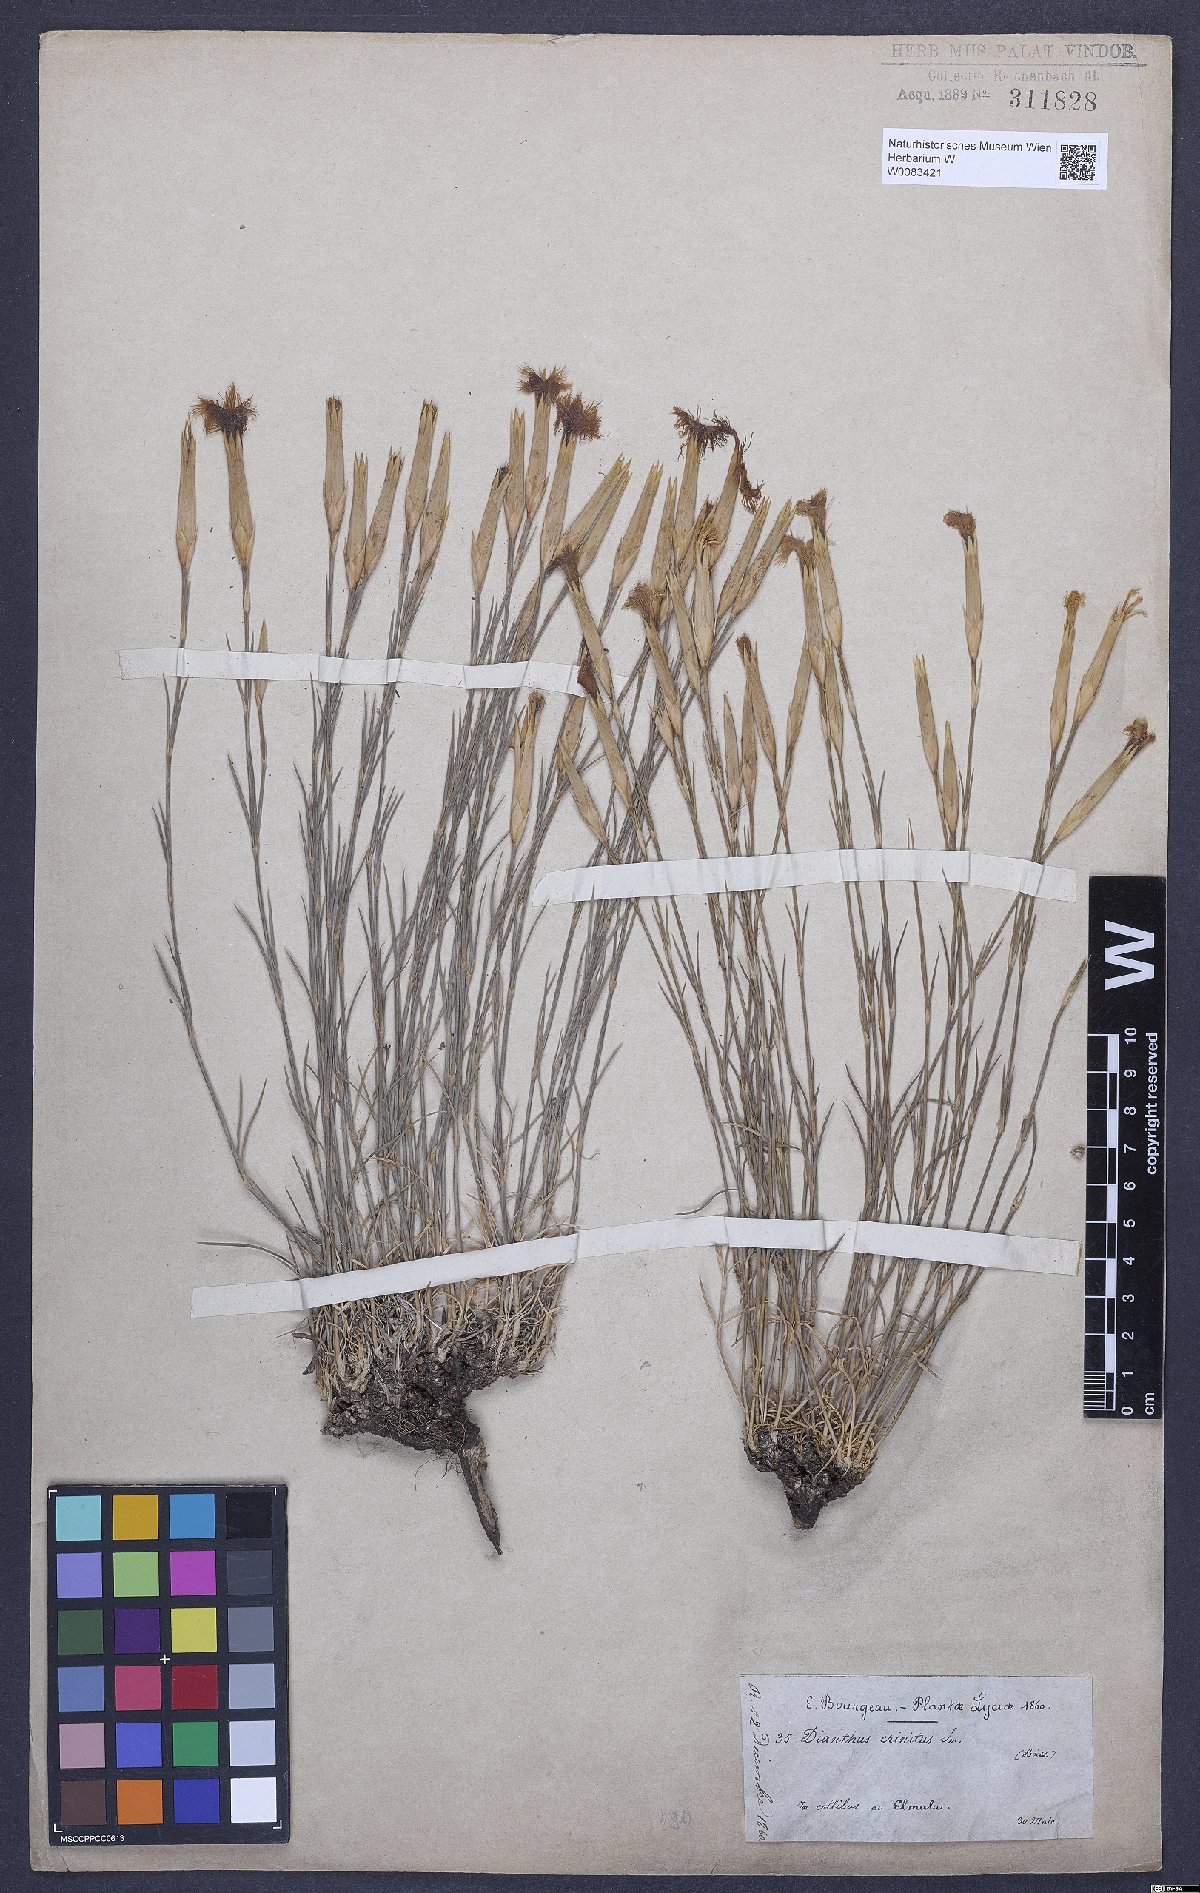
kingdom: Plantae
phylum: Tracheophyta
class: Magnoliopsida
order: Caryophyllales
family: Caryophyllaceae
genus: Dianthus
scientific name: Dianthus crinitus
